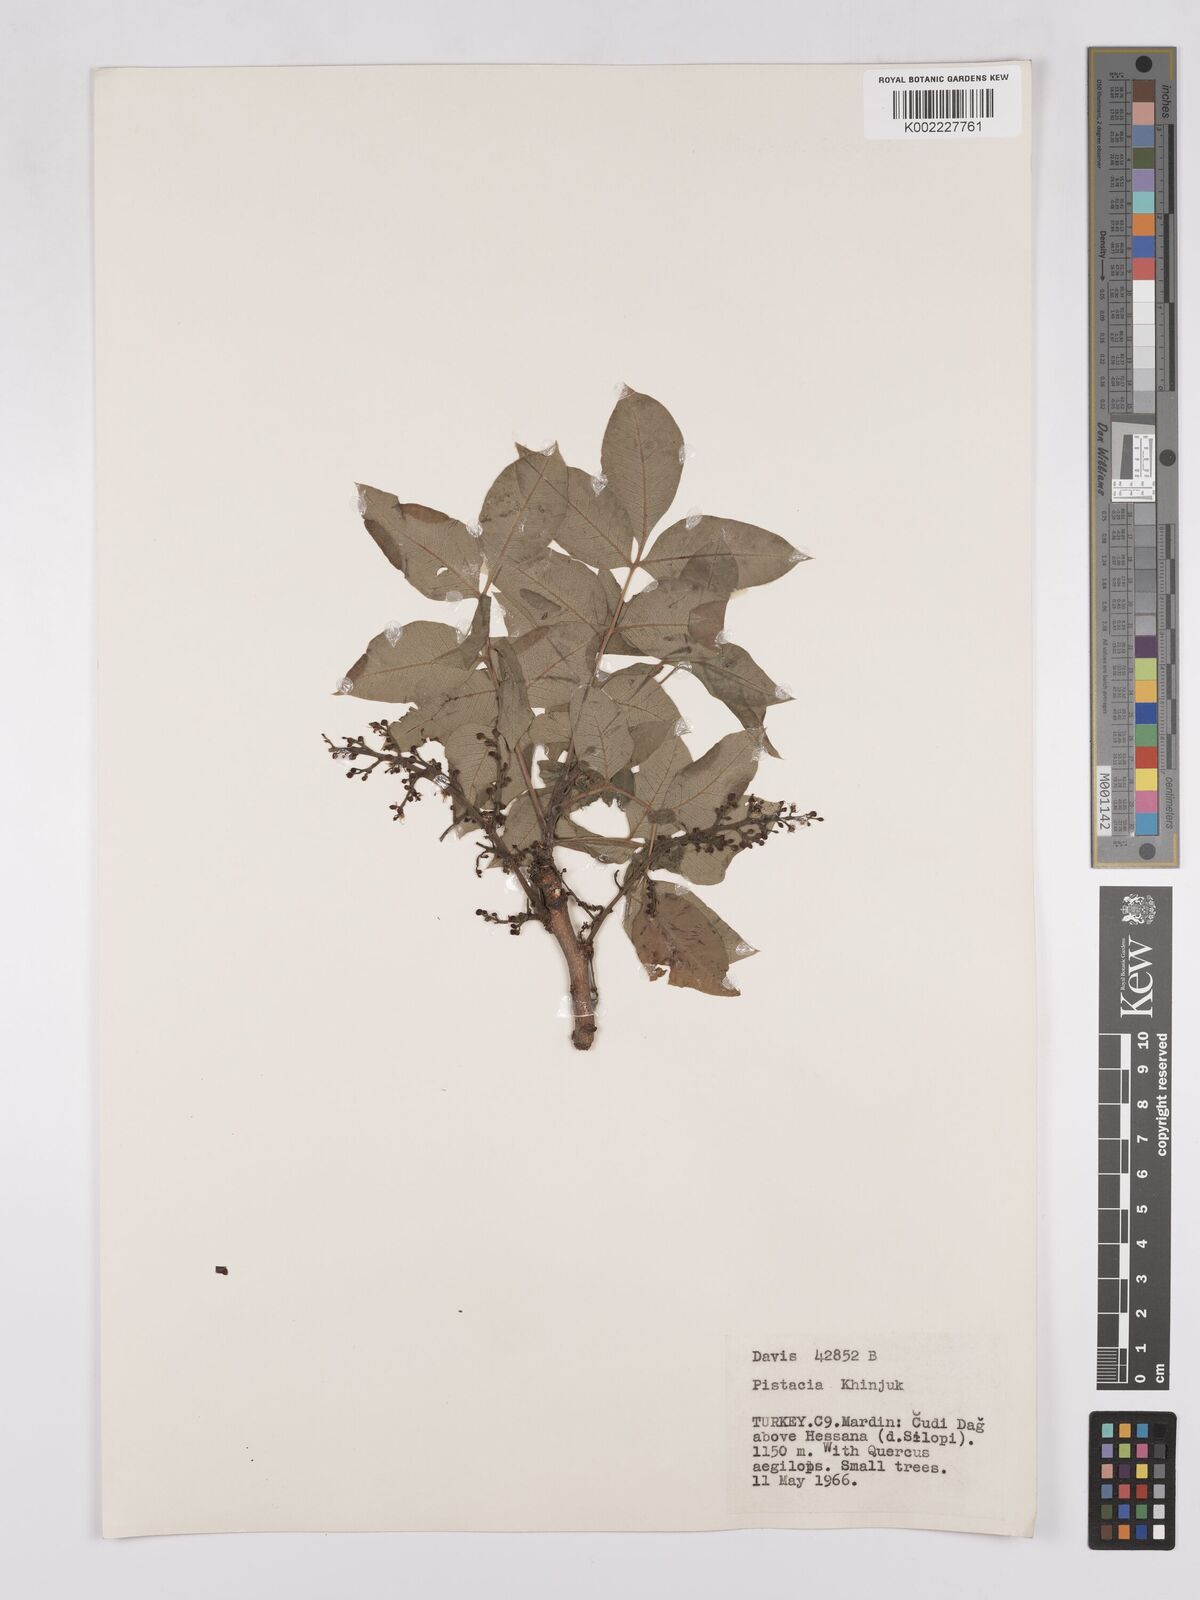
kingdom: Plantae
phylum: Tracheophyta
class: Magnoliopsida
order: Sapindales
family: Anacardiaceae
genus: Pistacia
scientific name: Pistacia
